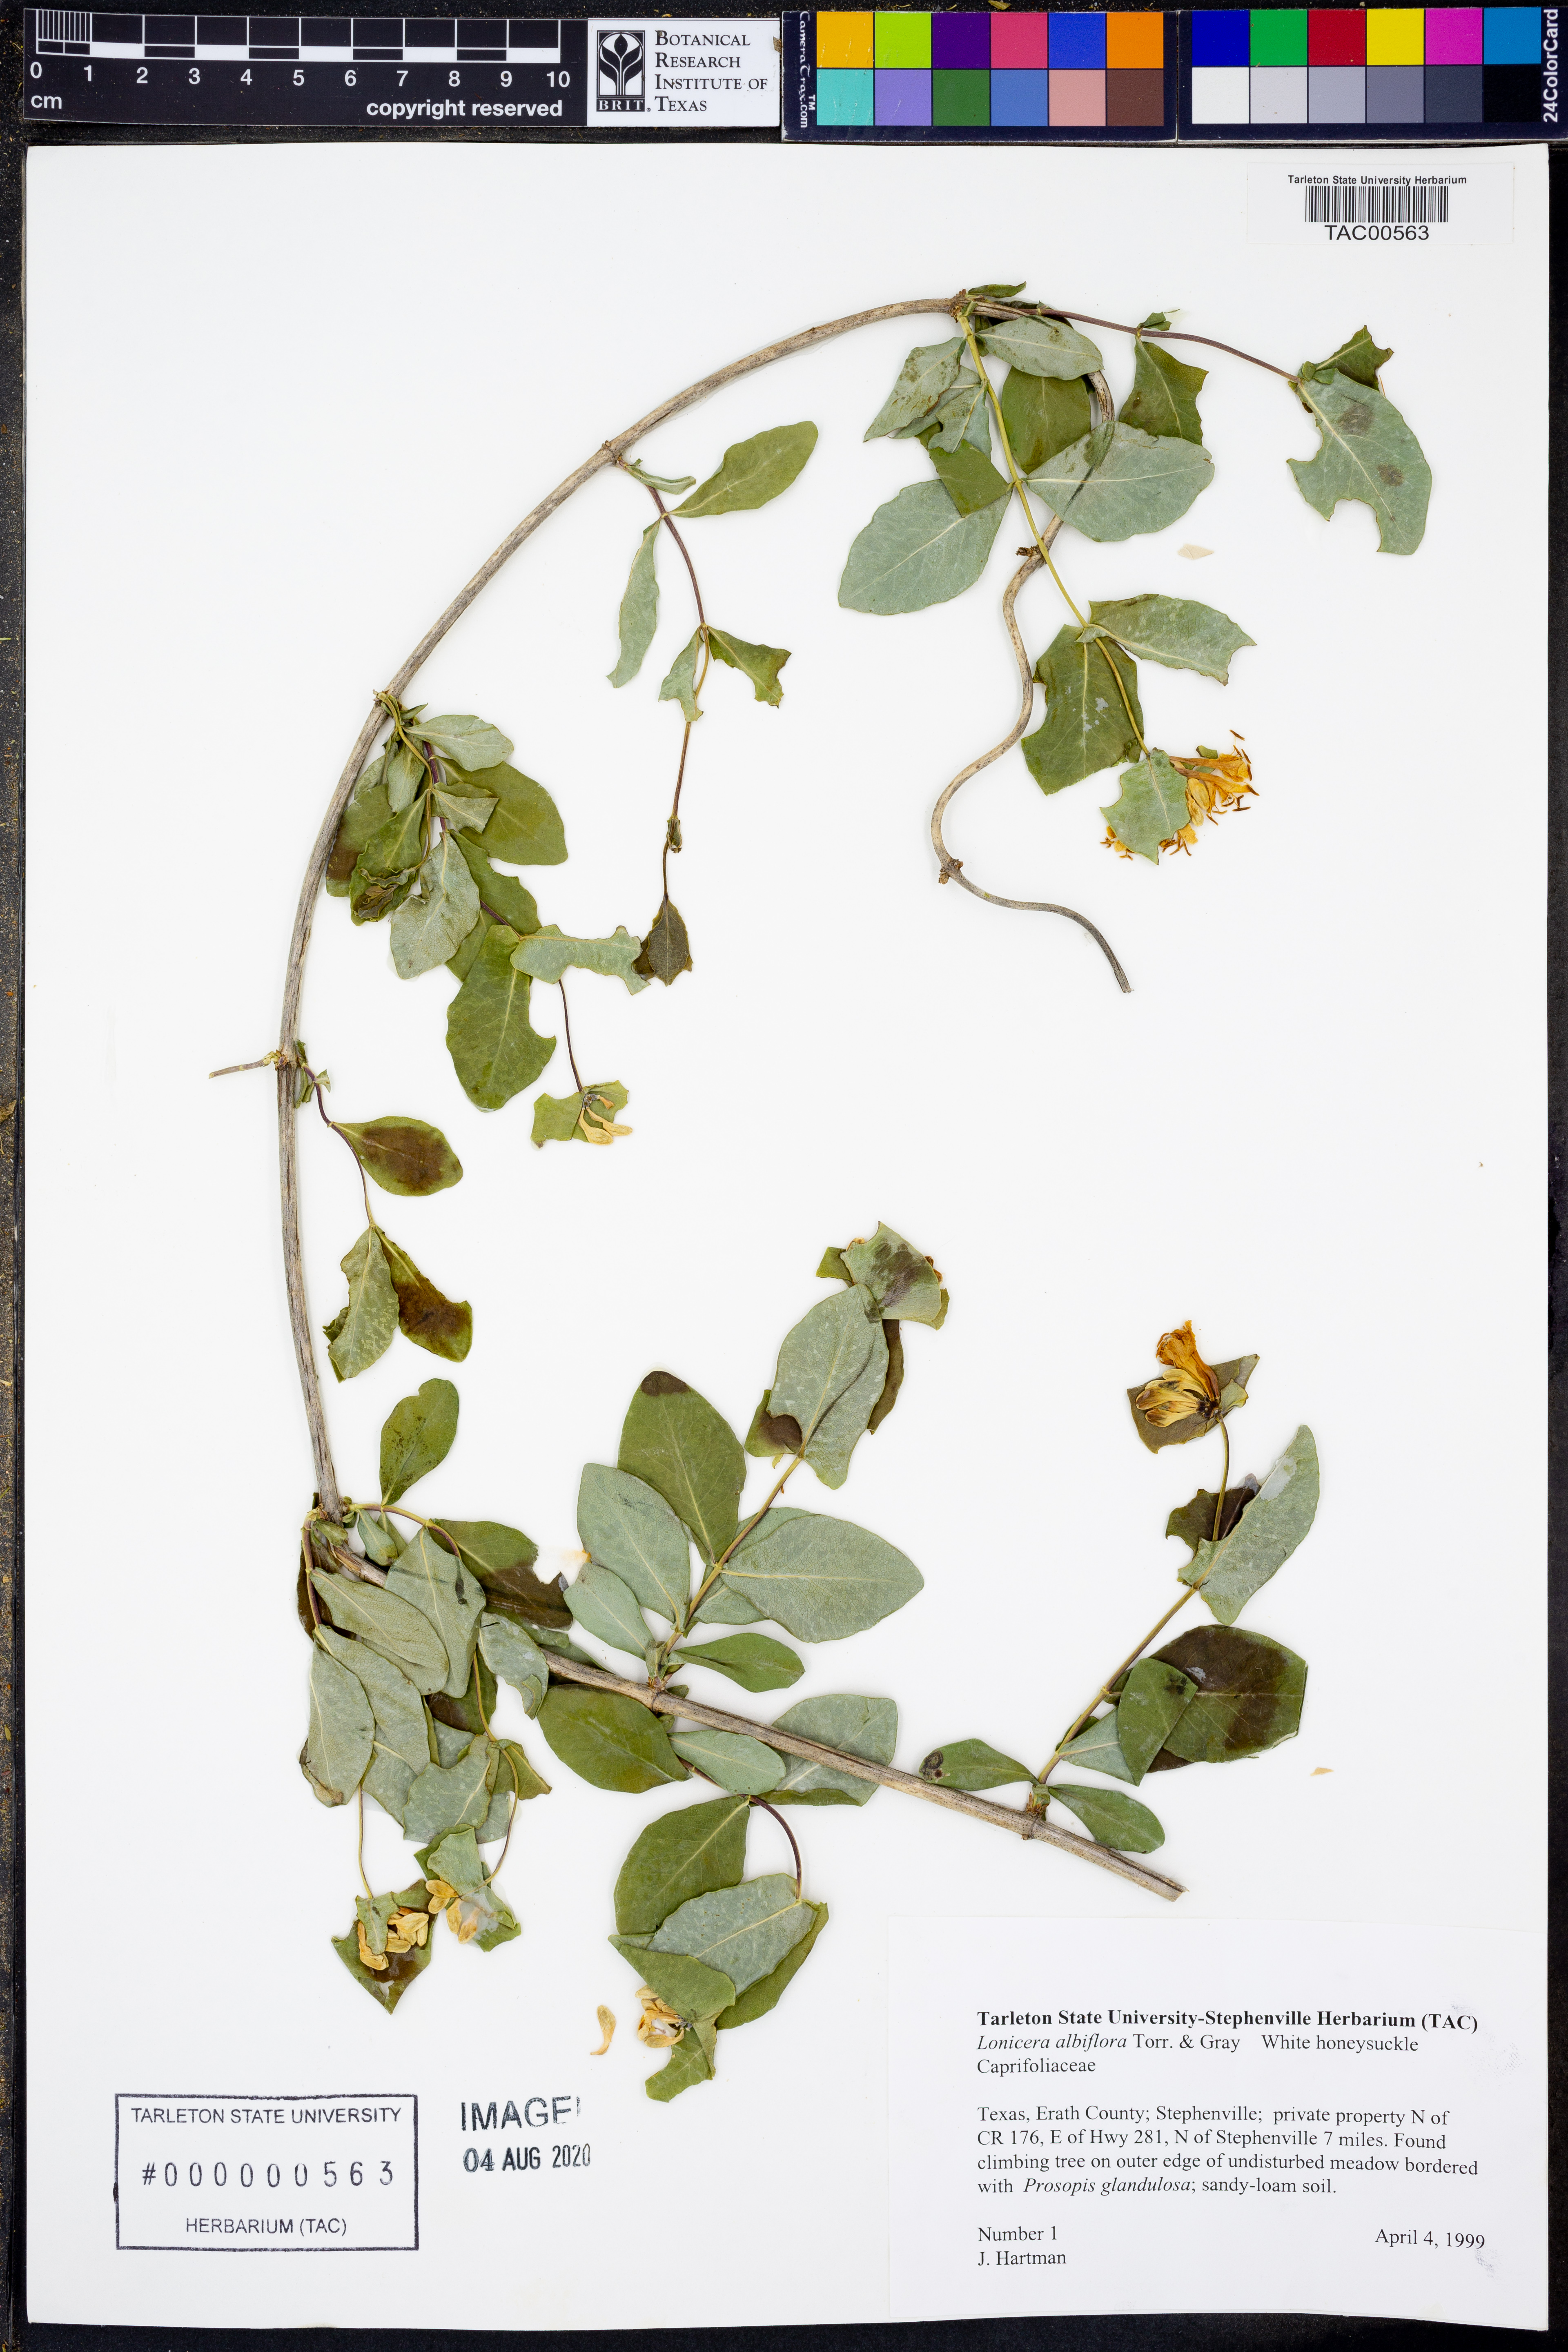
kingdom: Plantae
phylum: Tracheophyta
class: Magnoliopsida
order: Dipsacales
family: Caprifoliaceae
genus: Lonicera
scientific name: Lonicera albiflora
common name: White honeysuckle
